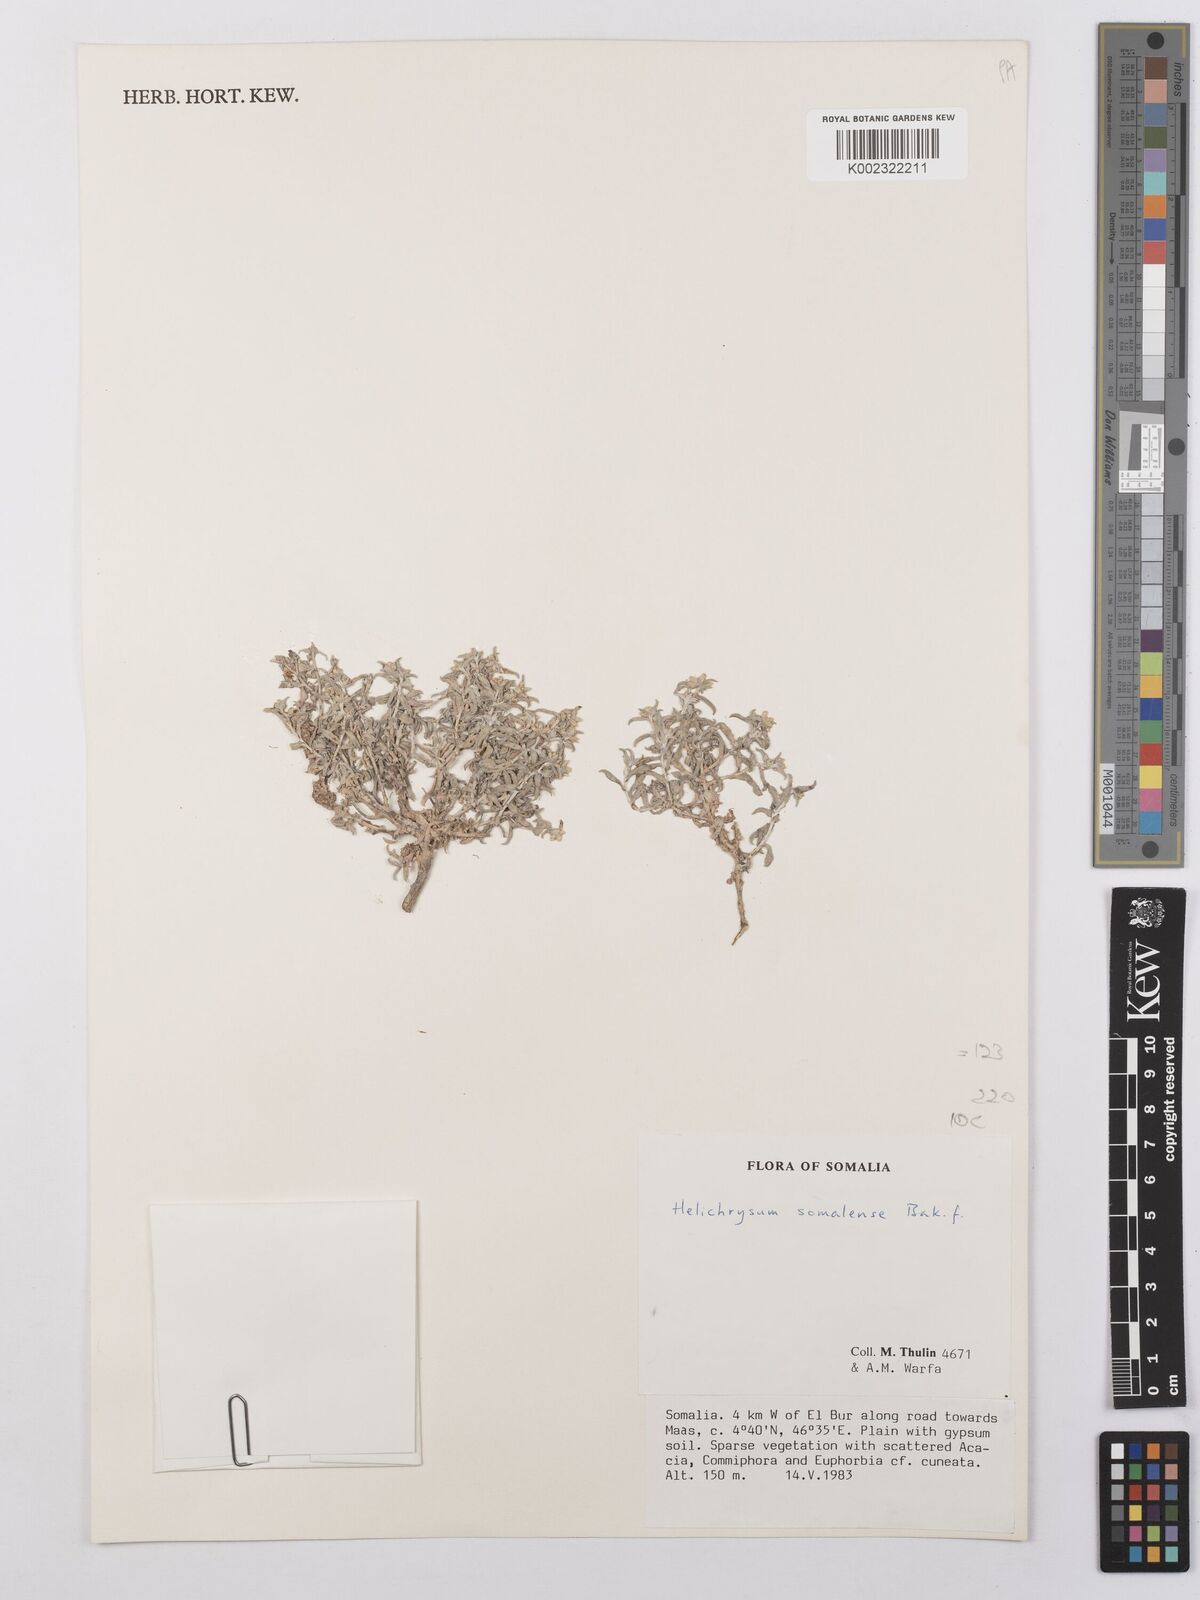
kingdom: Plantae
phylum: Tracheophyta
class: Magnoliopsida
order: Asterales
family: Asteraceae
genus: Helichrysum
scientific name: Helichrysum somalense
